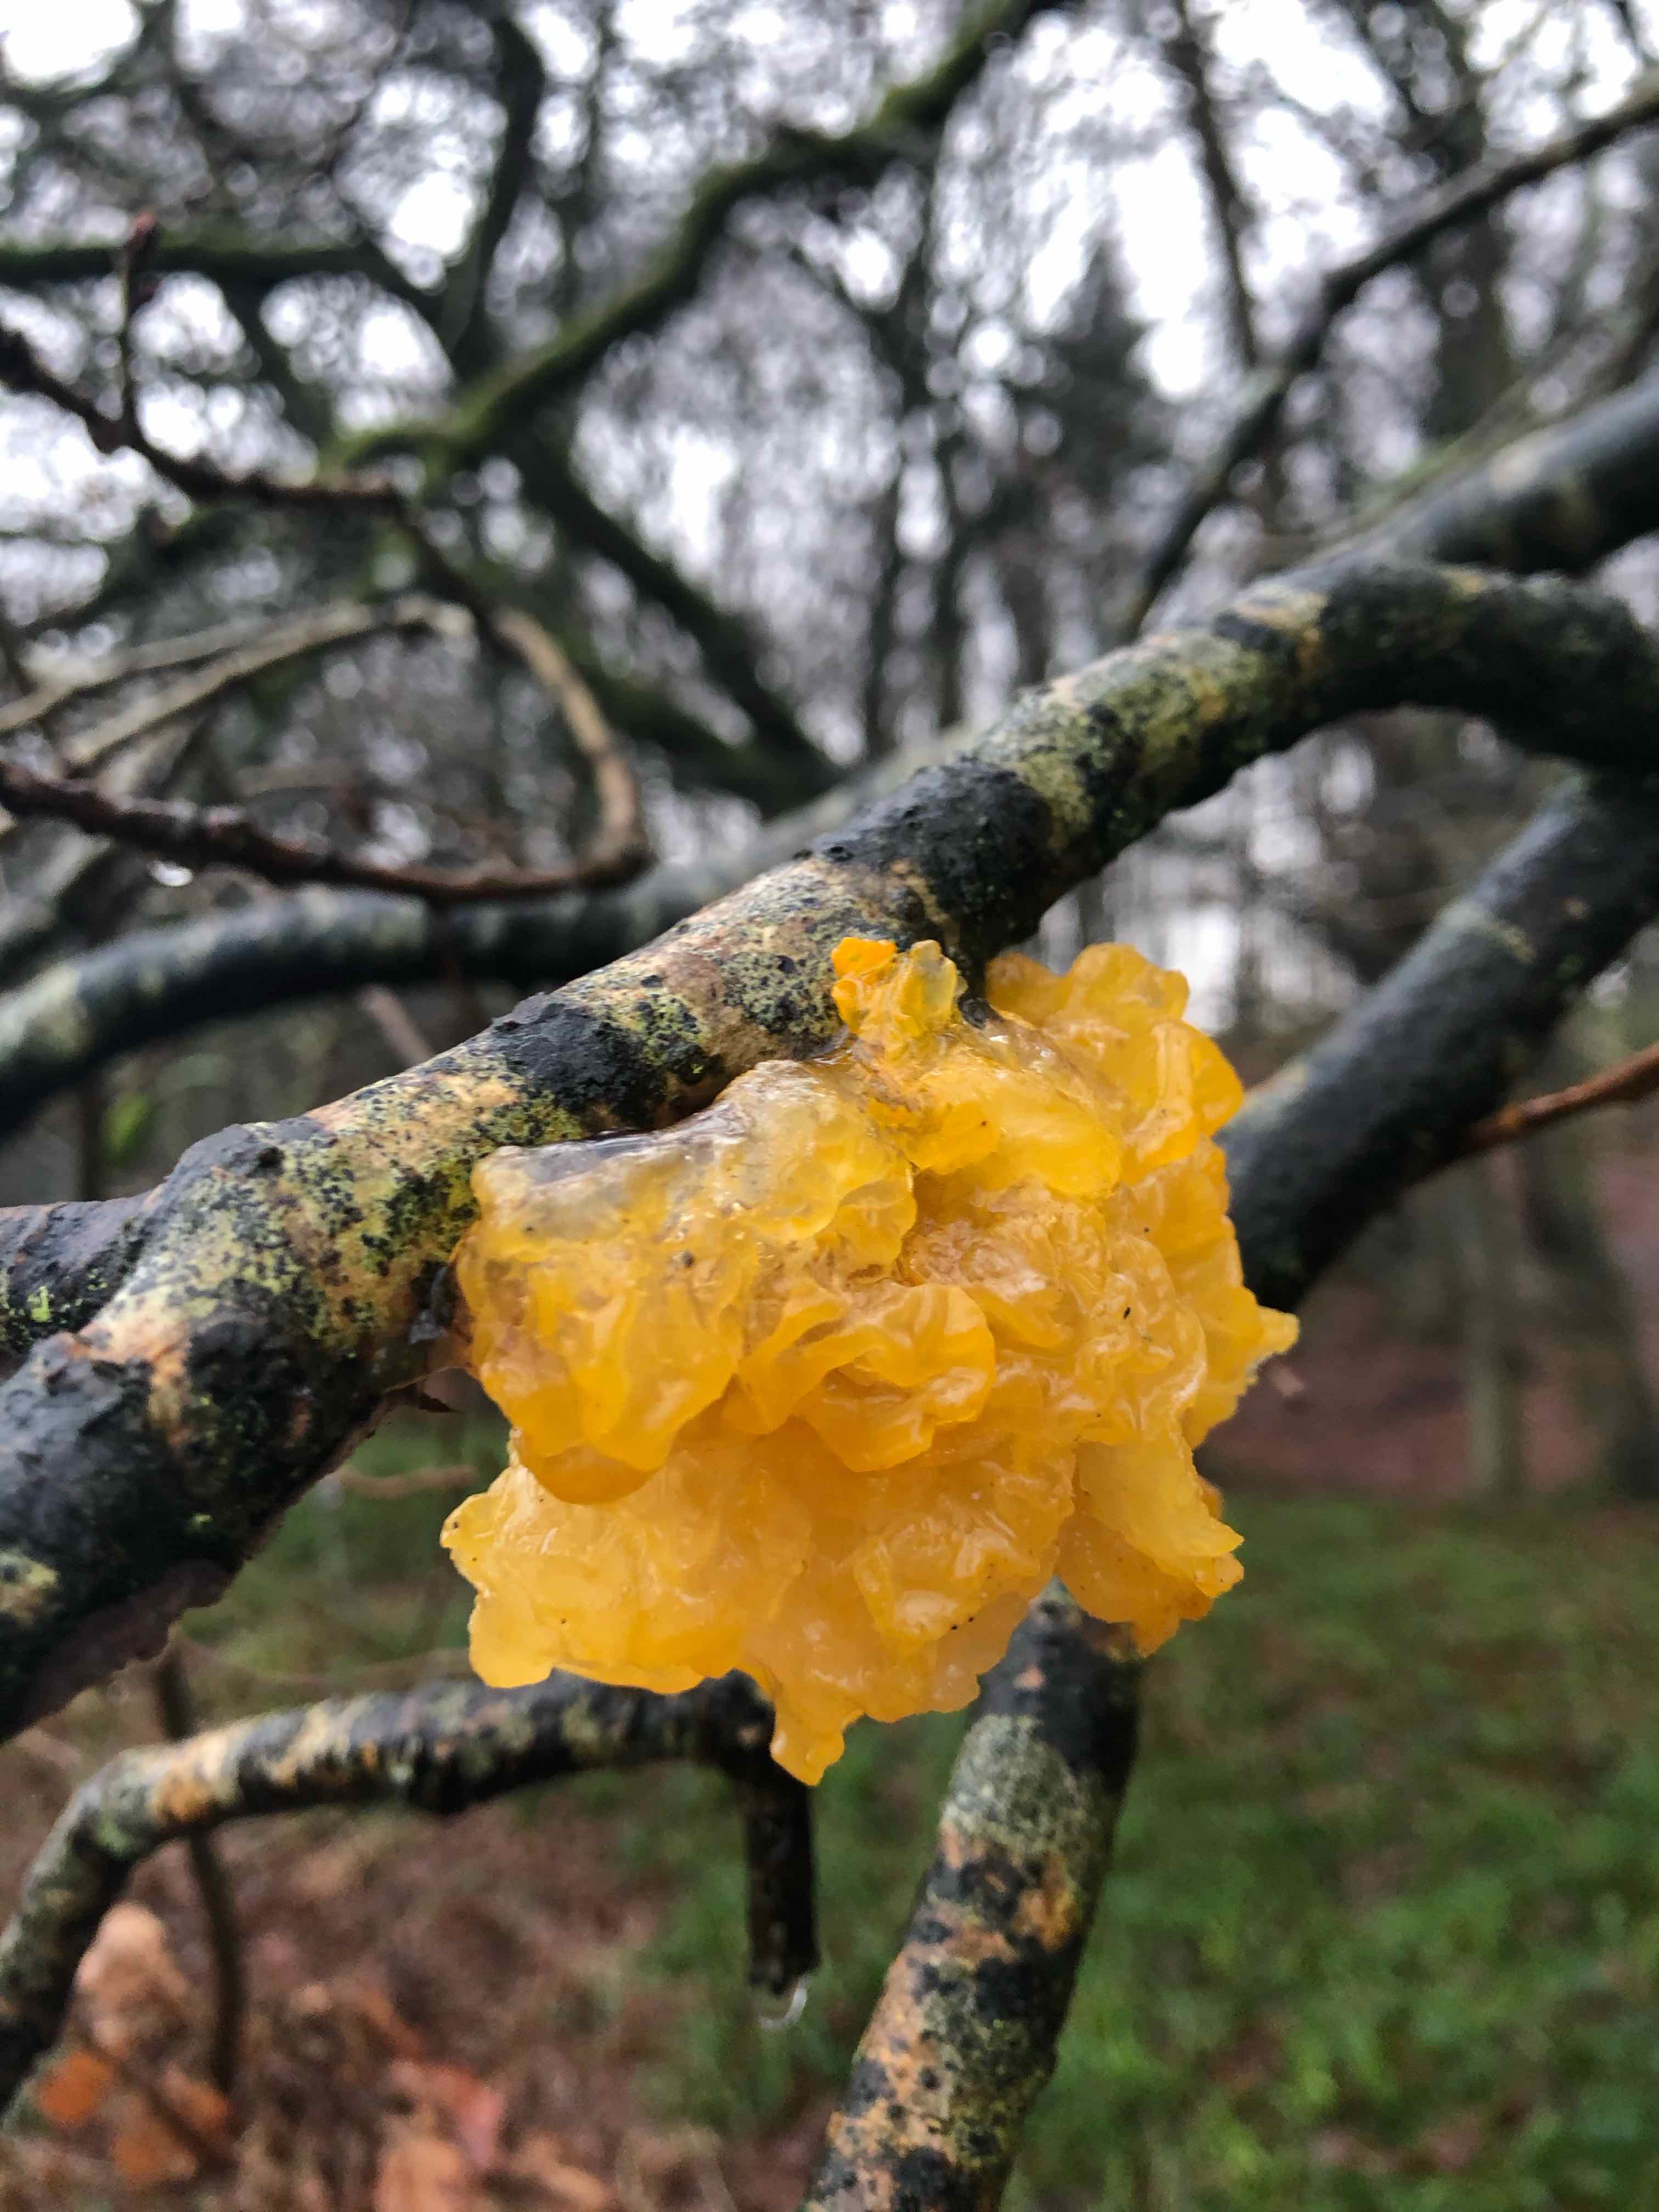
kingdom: Fungi
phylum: Basidiomycota
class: Tremellomycetes
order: Tremellales
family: Tremellaceae
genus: Tremella
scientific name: Tremella mesenterica
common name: gul bævresvamp
